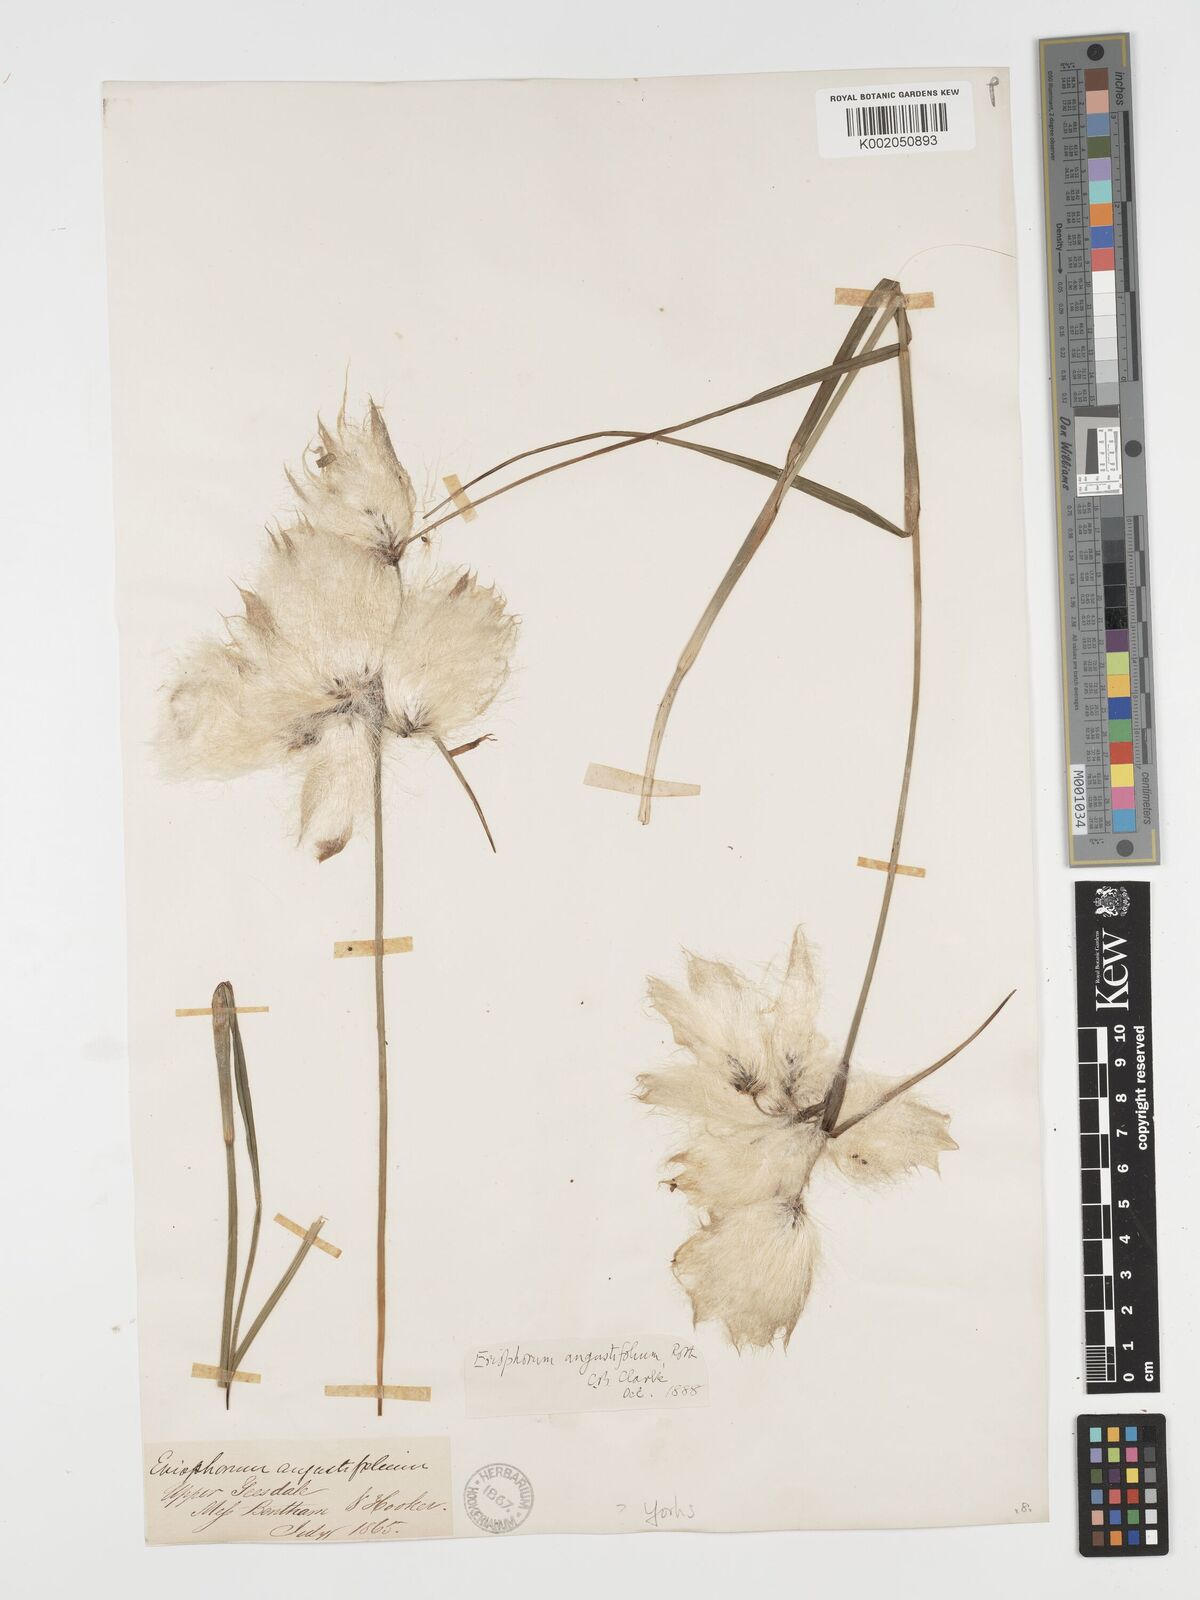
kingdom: Plantae
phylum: Tracheophyta
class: Liliopsida
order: Poales
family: Cyperaceae
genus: Eriophorum
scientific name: Eriophorum angustifolium
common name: Common cottongrass
